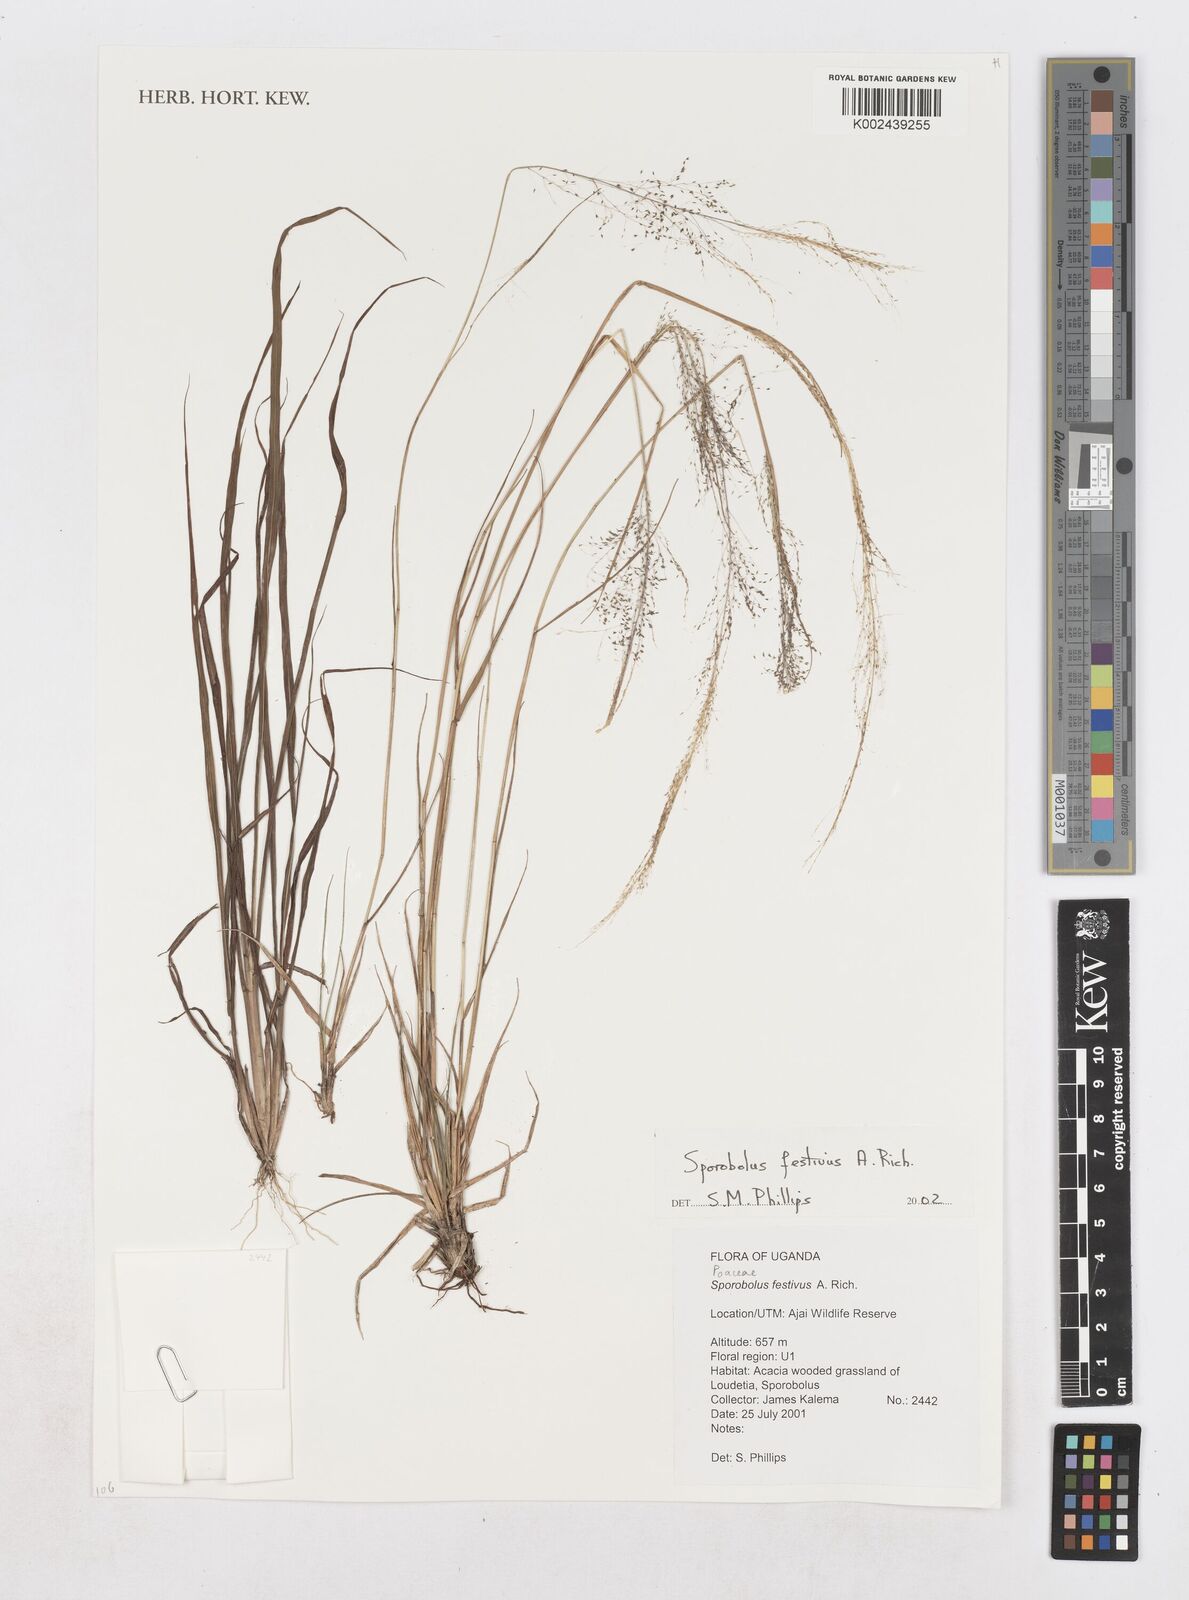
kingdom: Plantae
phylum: Tracheophyta
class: Liliopsida
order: Poales
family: Poaceae
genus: Sporobolus
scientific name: Sporobolus festivus
